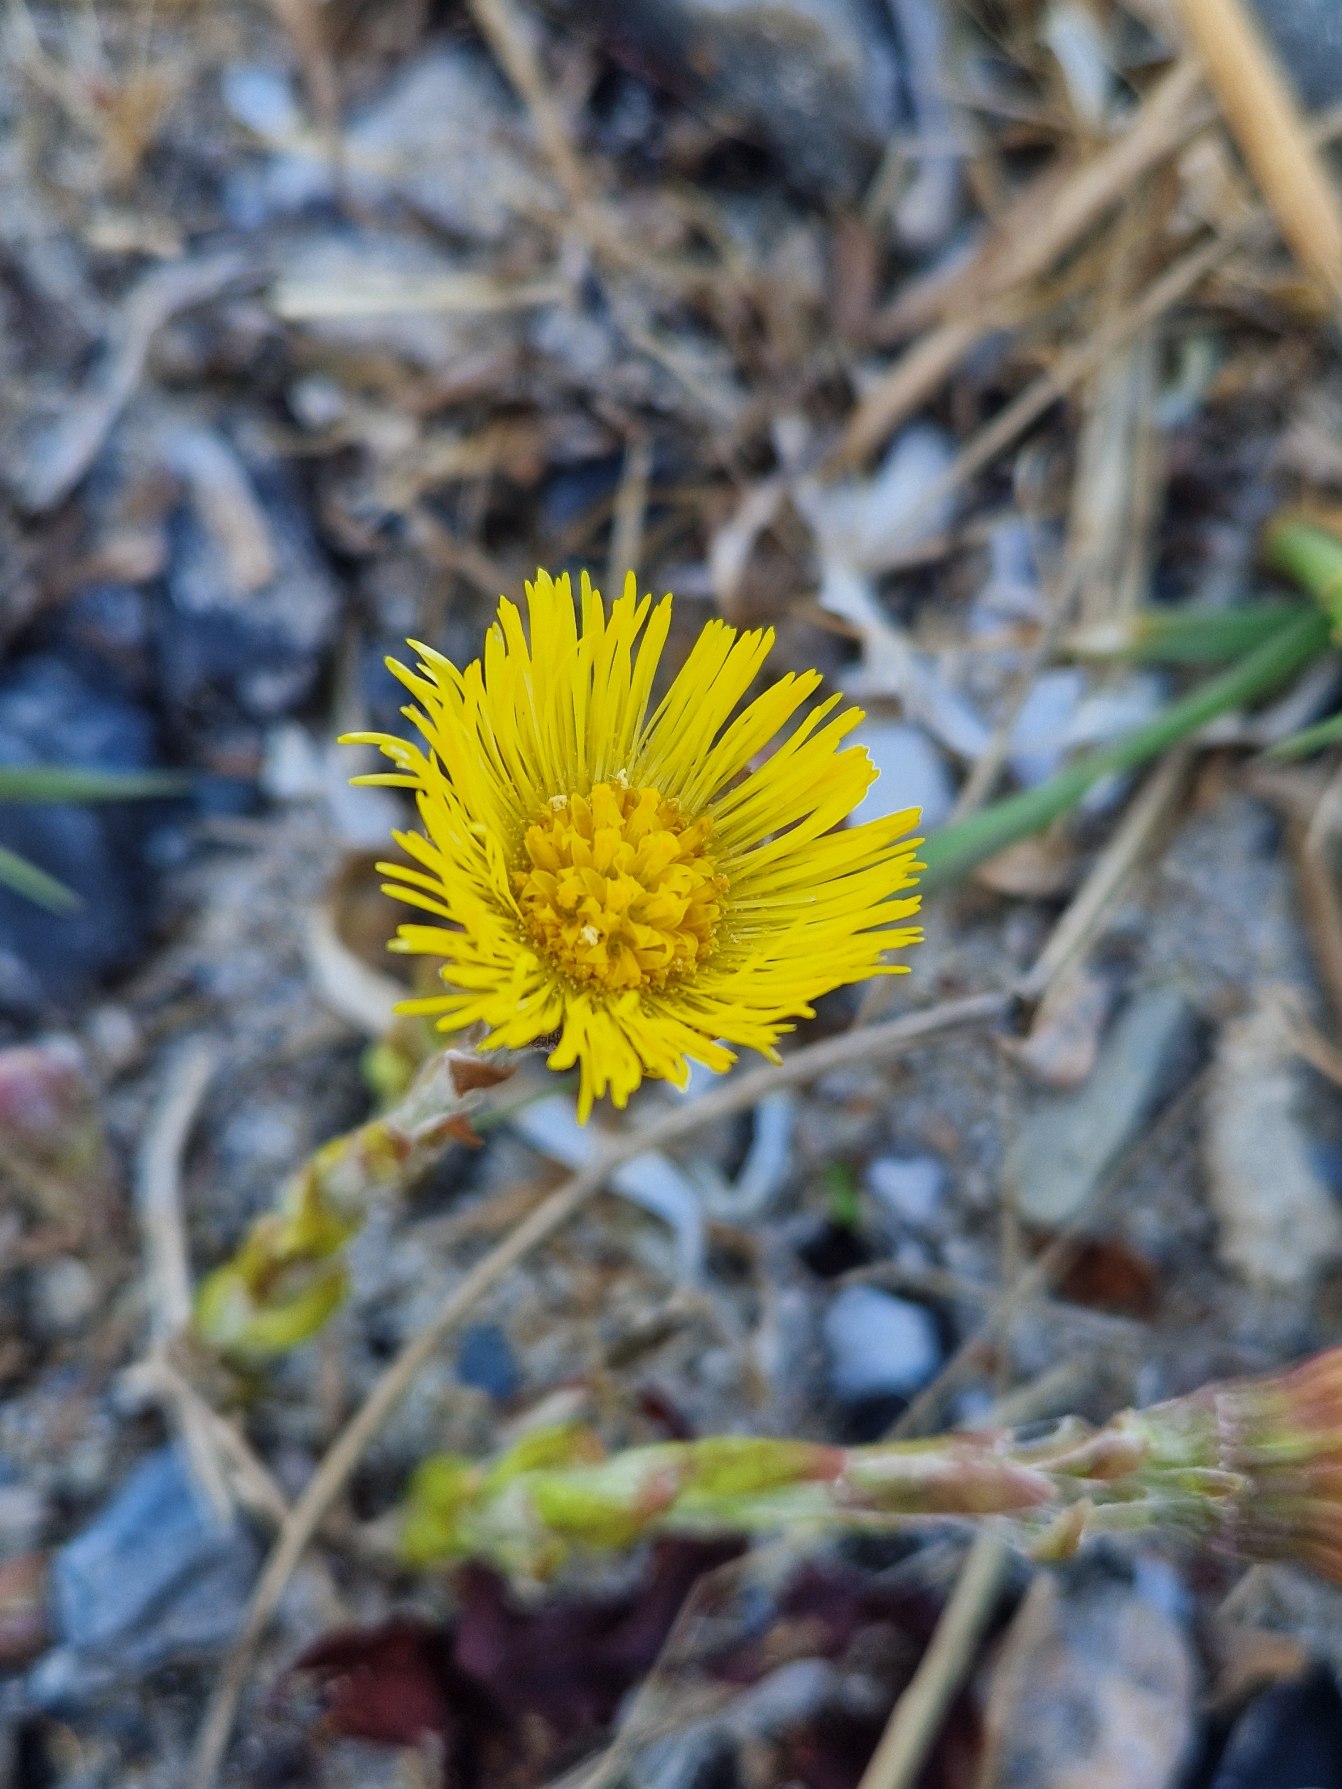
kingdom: Plantae
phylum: Tracheophyta
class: Magnoliopsida
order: Asterales
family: Asteraceae
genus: Tussilago
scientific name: Tussilago farfara
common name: Følfod
